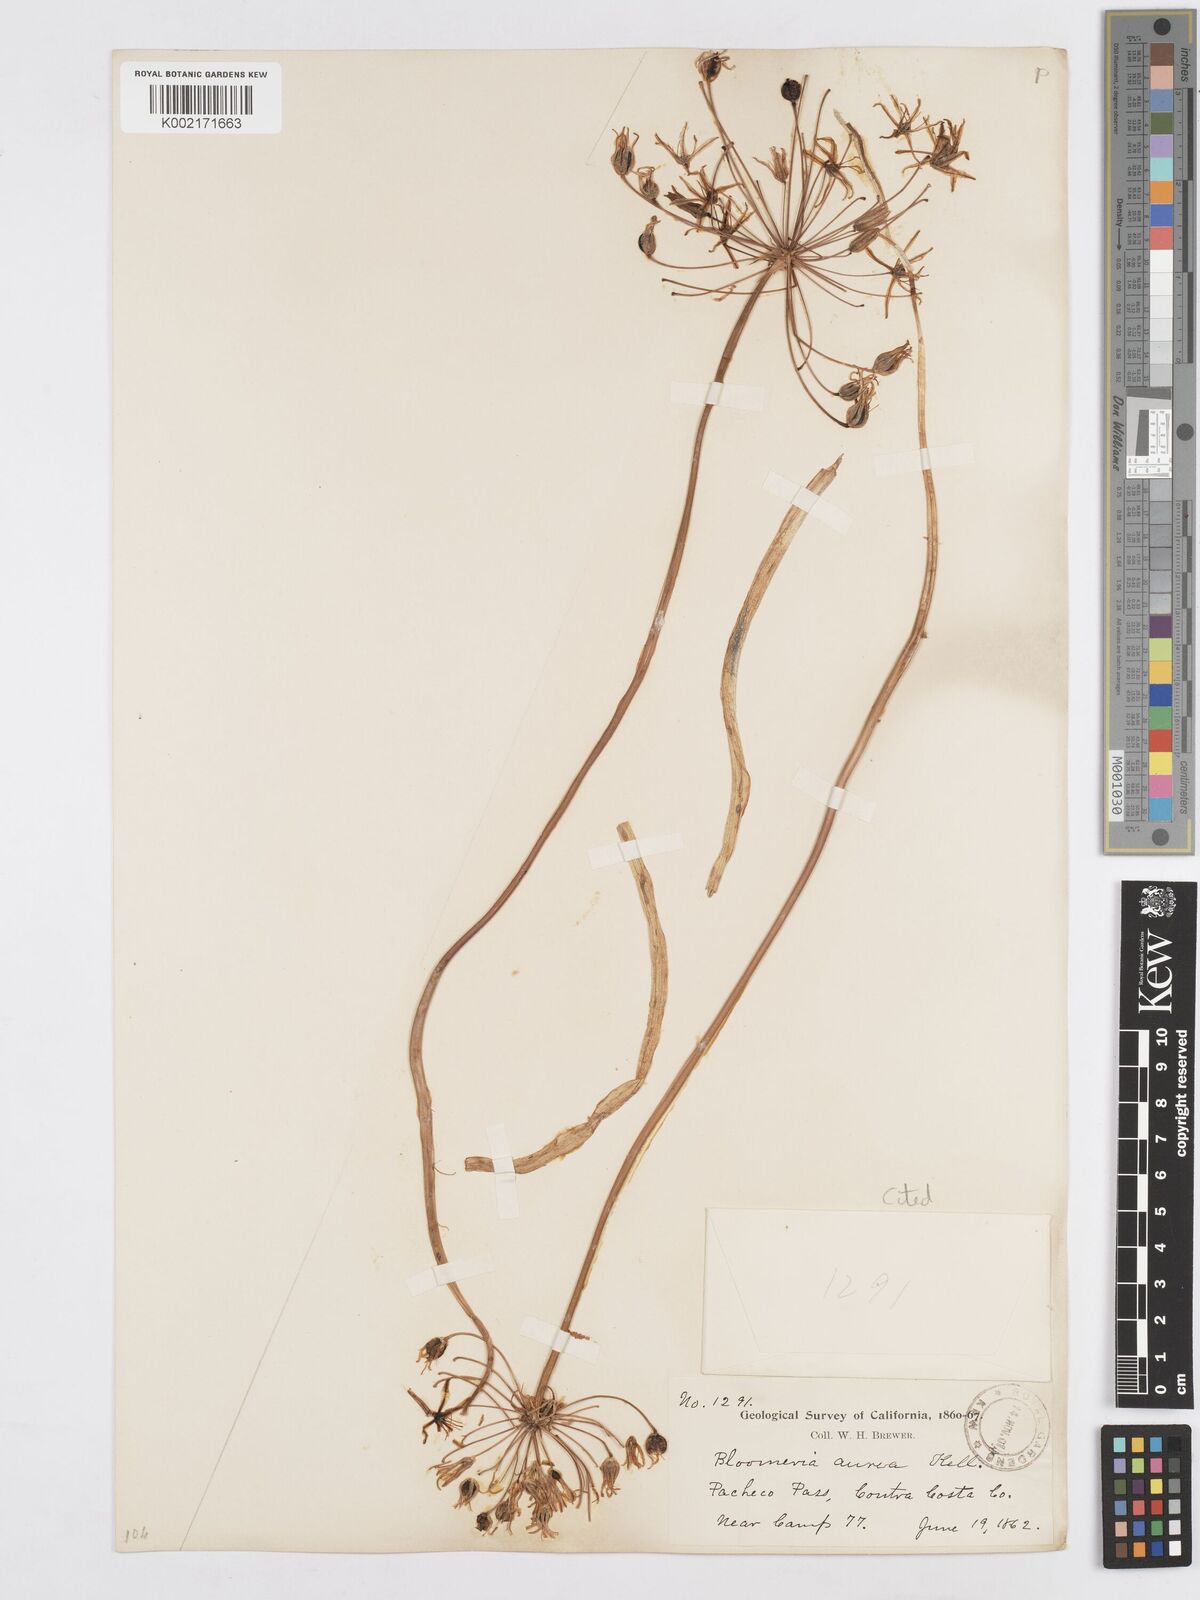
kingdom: Plantae
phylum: Tracheophyta
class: Liliopsida
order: Asparagales
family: Asparagaceae
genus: Bloomeria
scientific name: Bloomeria crocea
